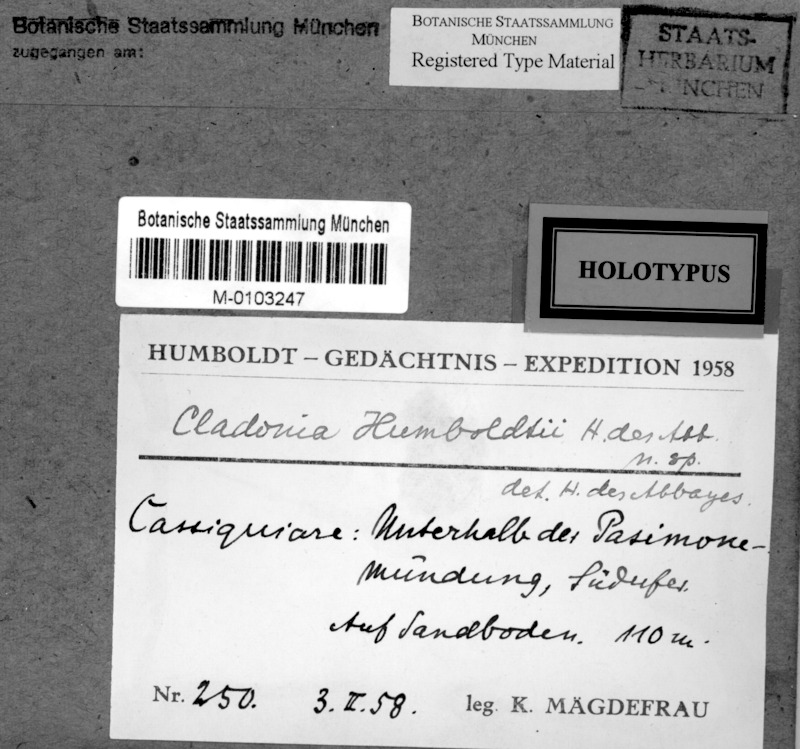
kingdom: Fungi
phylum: Ascomycota
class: Lecanoromycetes
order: Lecanorales
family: Cladoniaceae
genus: Cladonia
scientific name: Cladonia pertricosa
